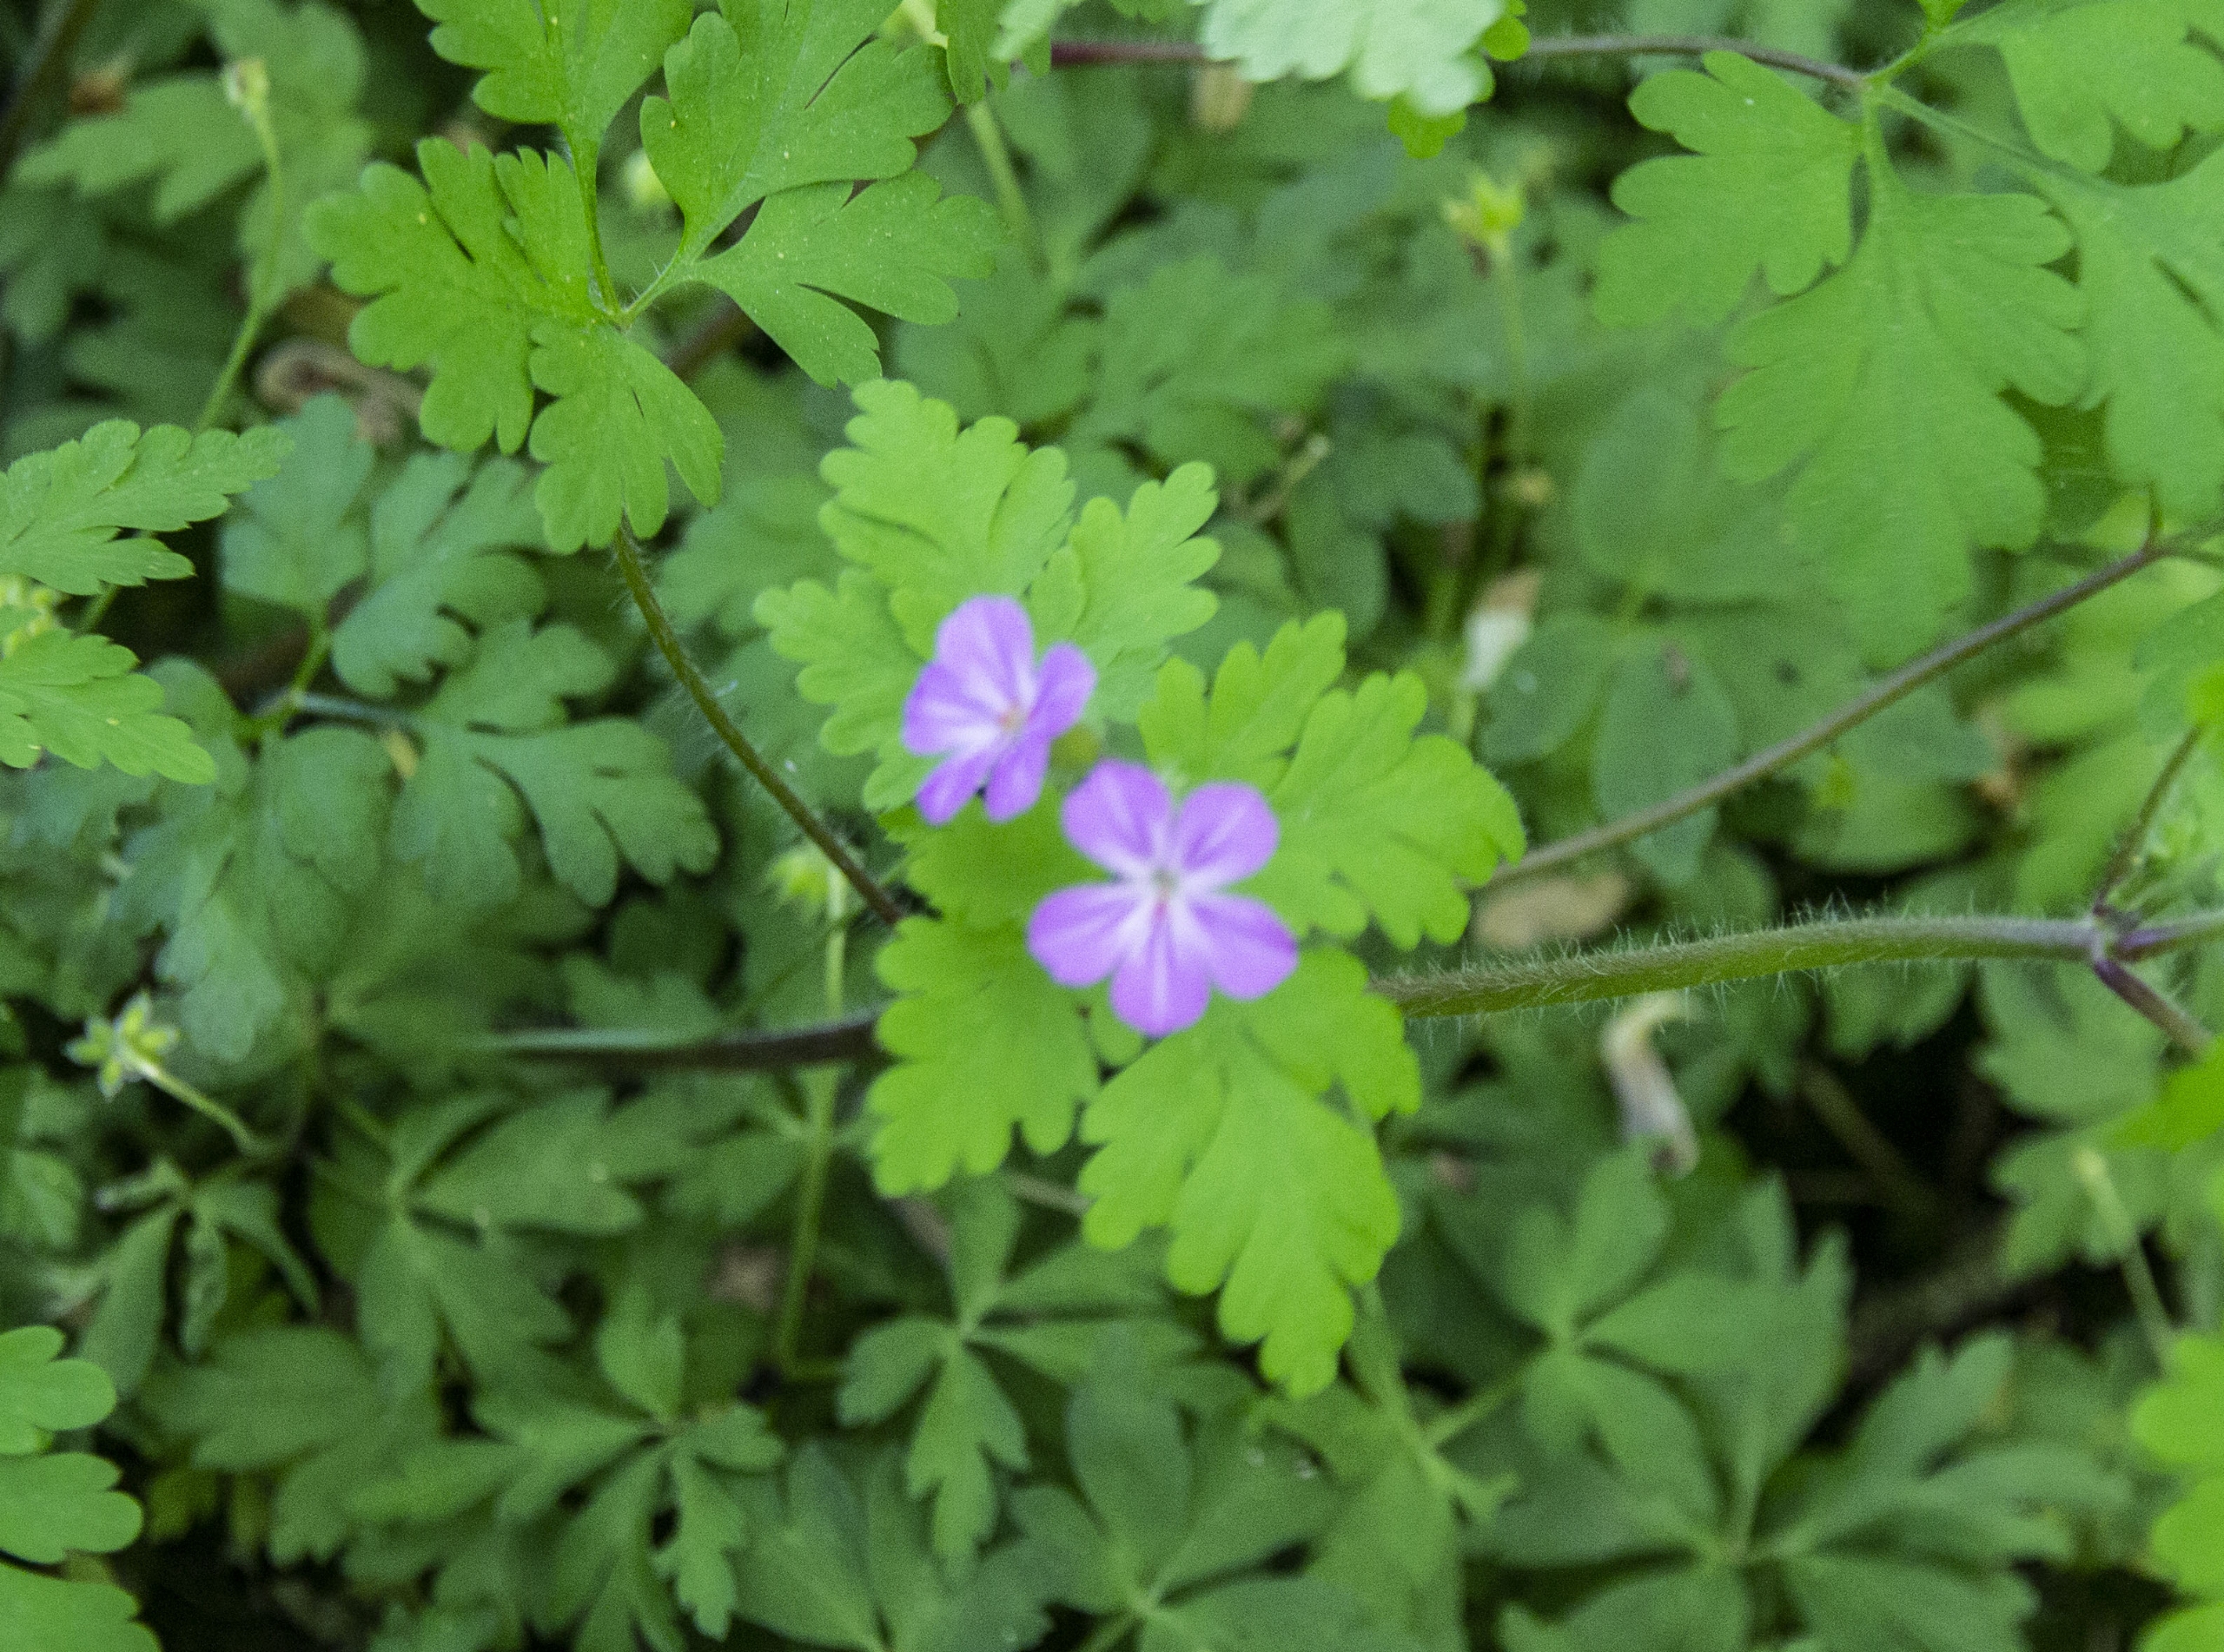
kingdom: Plantae
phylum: Tracheophyta
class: Magnoliopsida
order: Geraniales
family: Geraniaceae
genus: Geranium
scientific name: Geranium sylvaticum
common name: Skov-storkenæb
